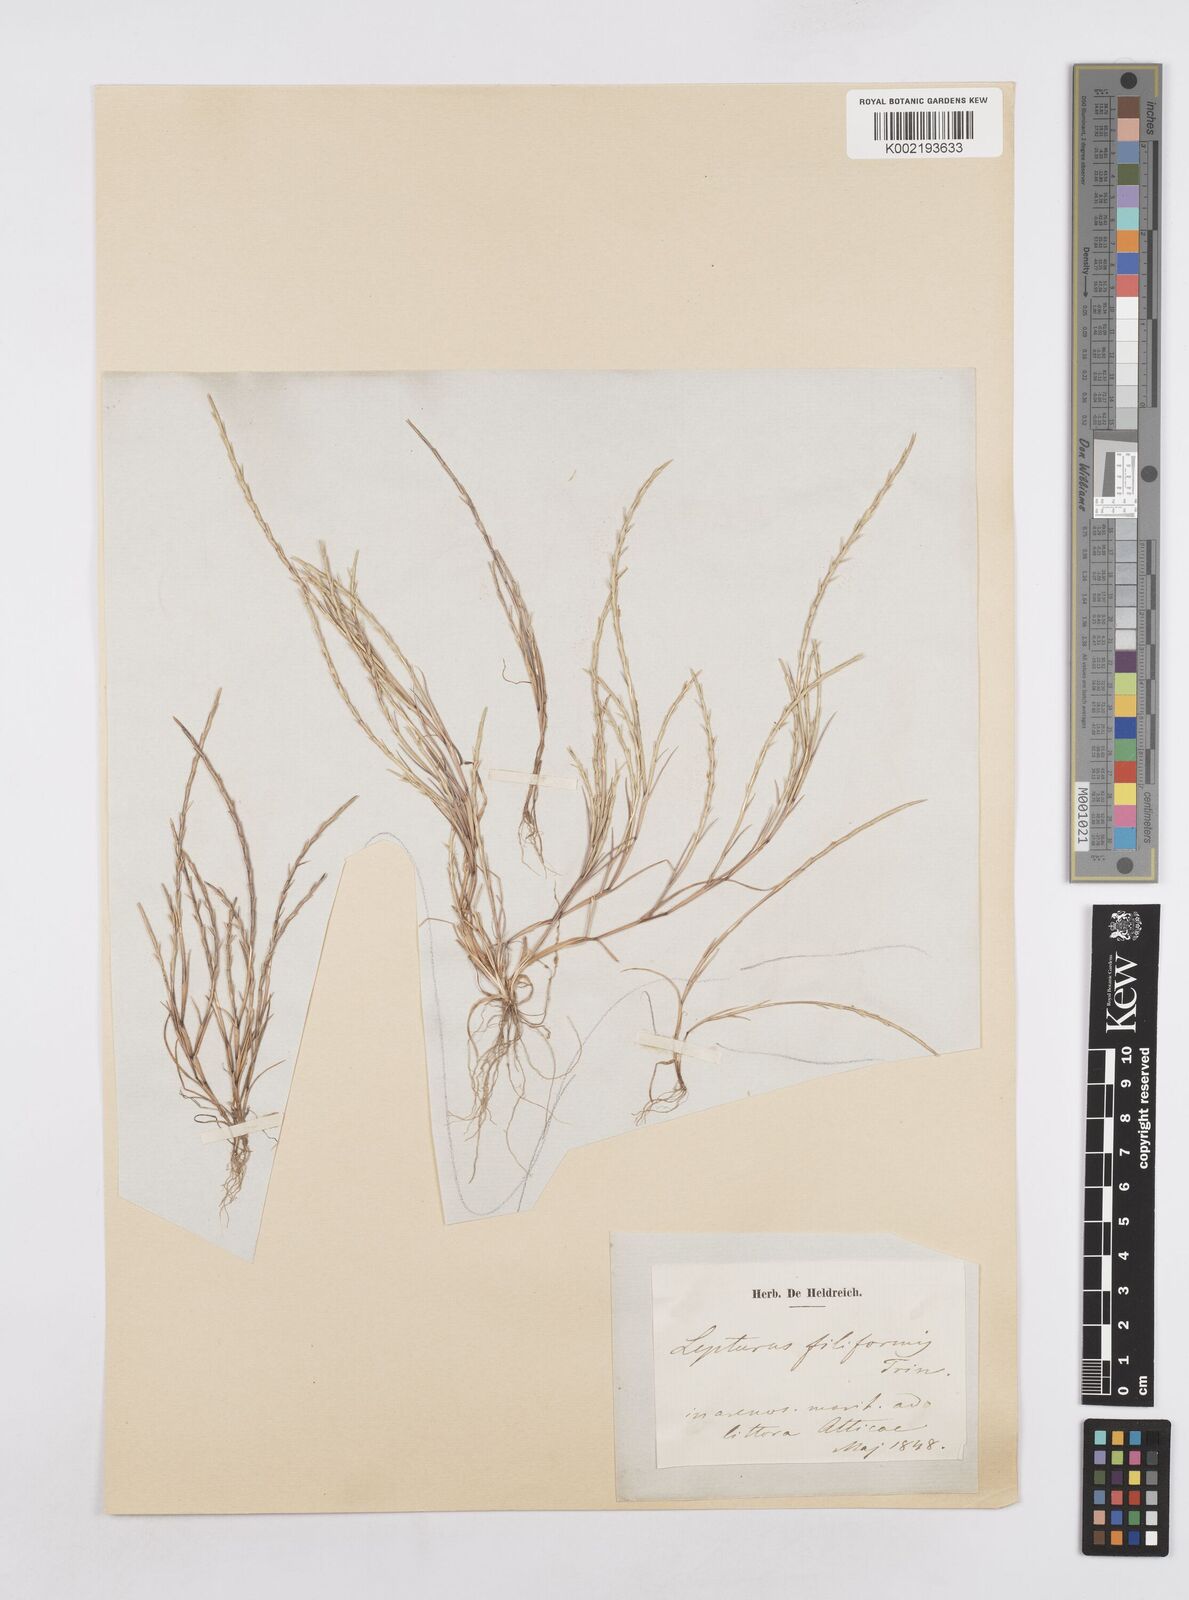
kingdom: Plantae
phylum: Tracheophyta
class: Liliopsida
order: Poales
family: Poaceae
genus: Parapholis
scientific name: Parapholis filiformis
